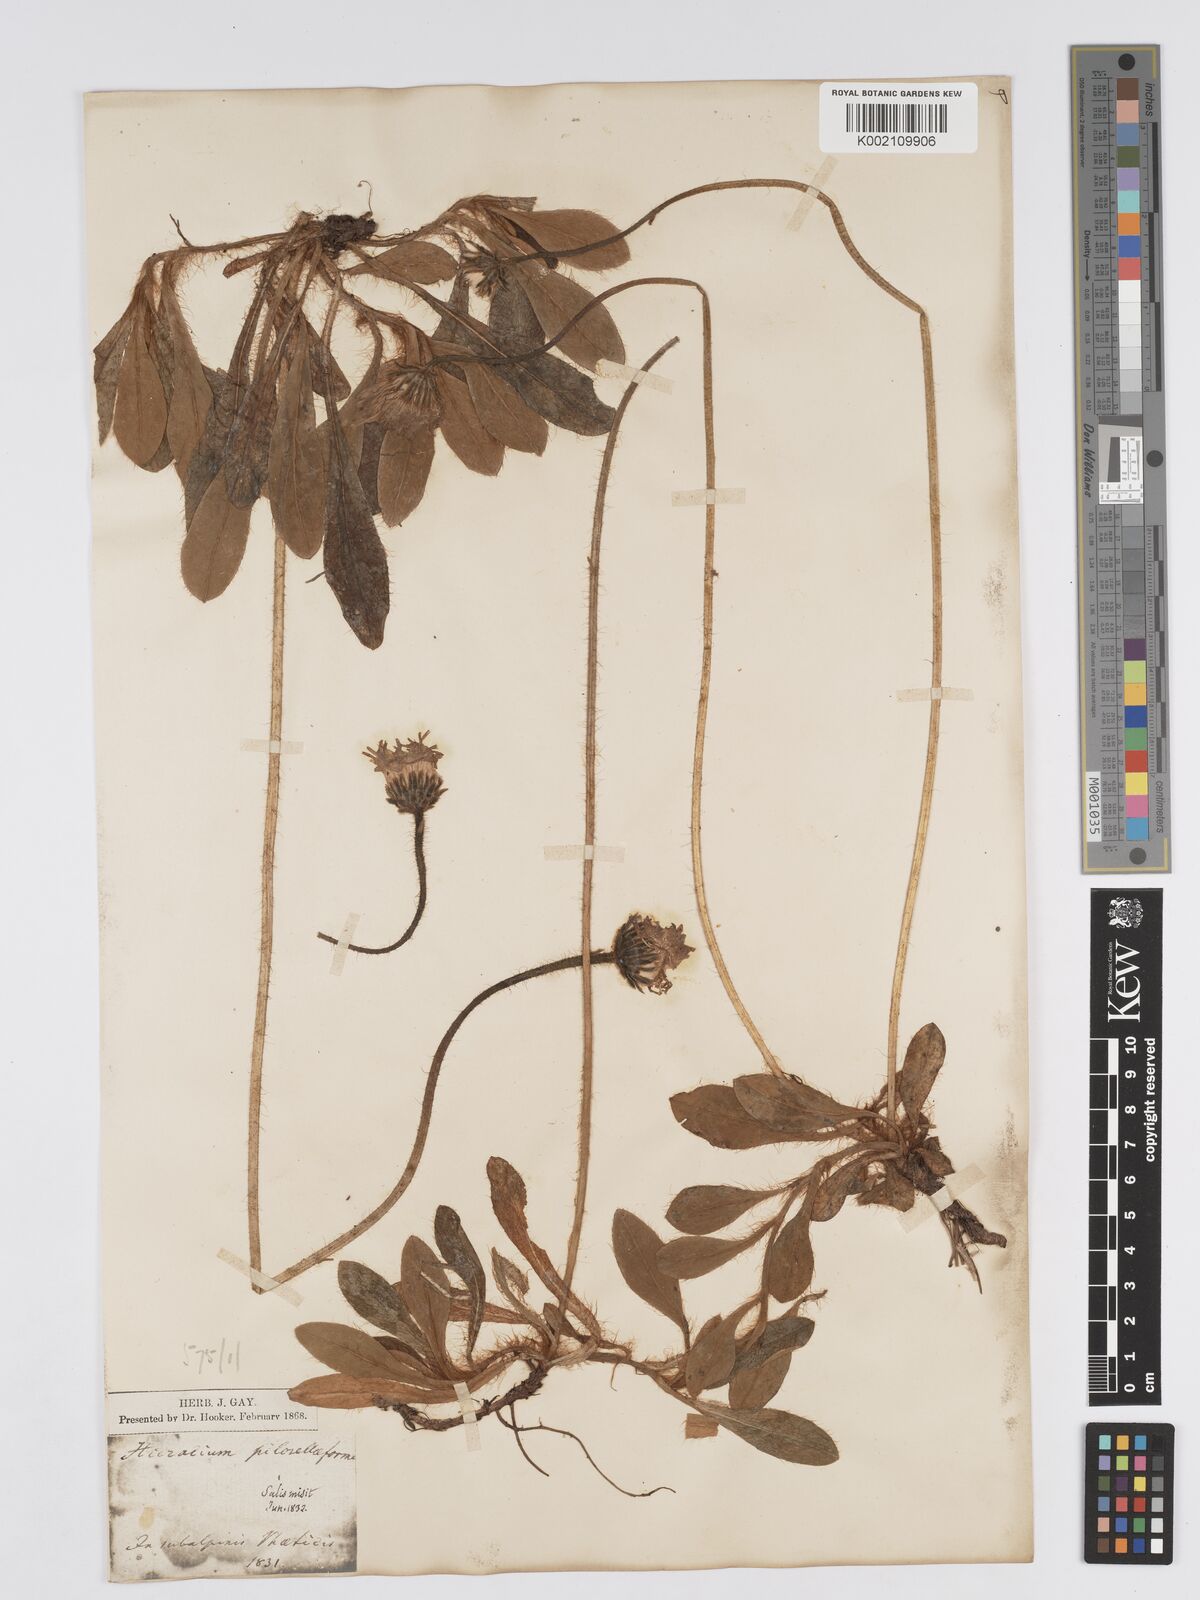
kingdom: Plantae
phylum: Tracheophyta
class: Magnoliopsida
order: Asterales
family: Asteraceae
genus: Pilosella
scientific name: Pilosella hoppeana
